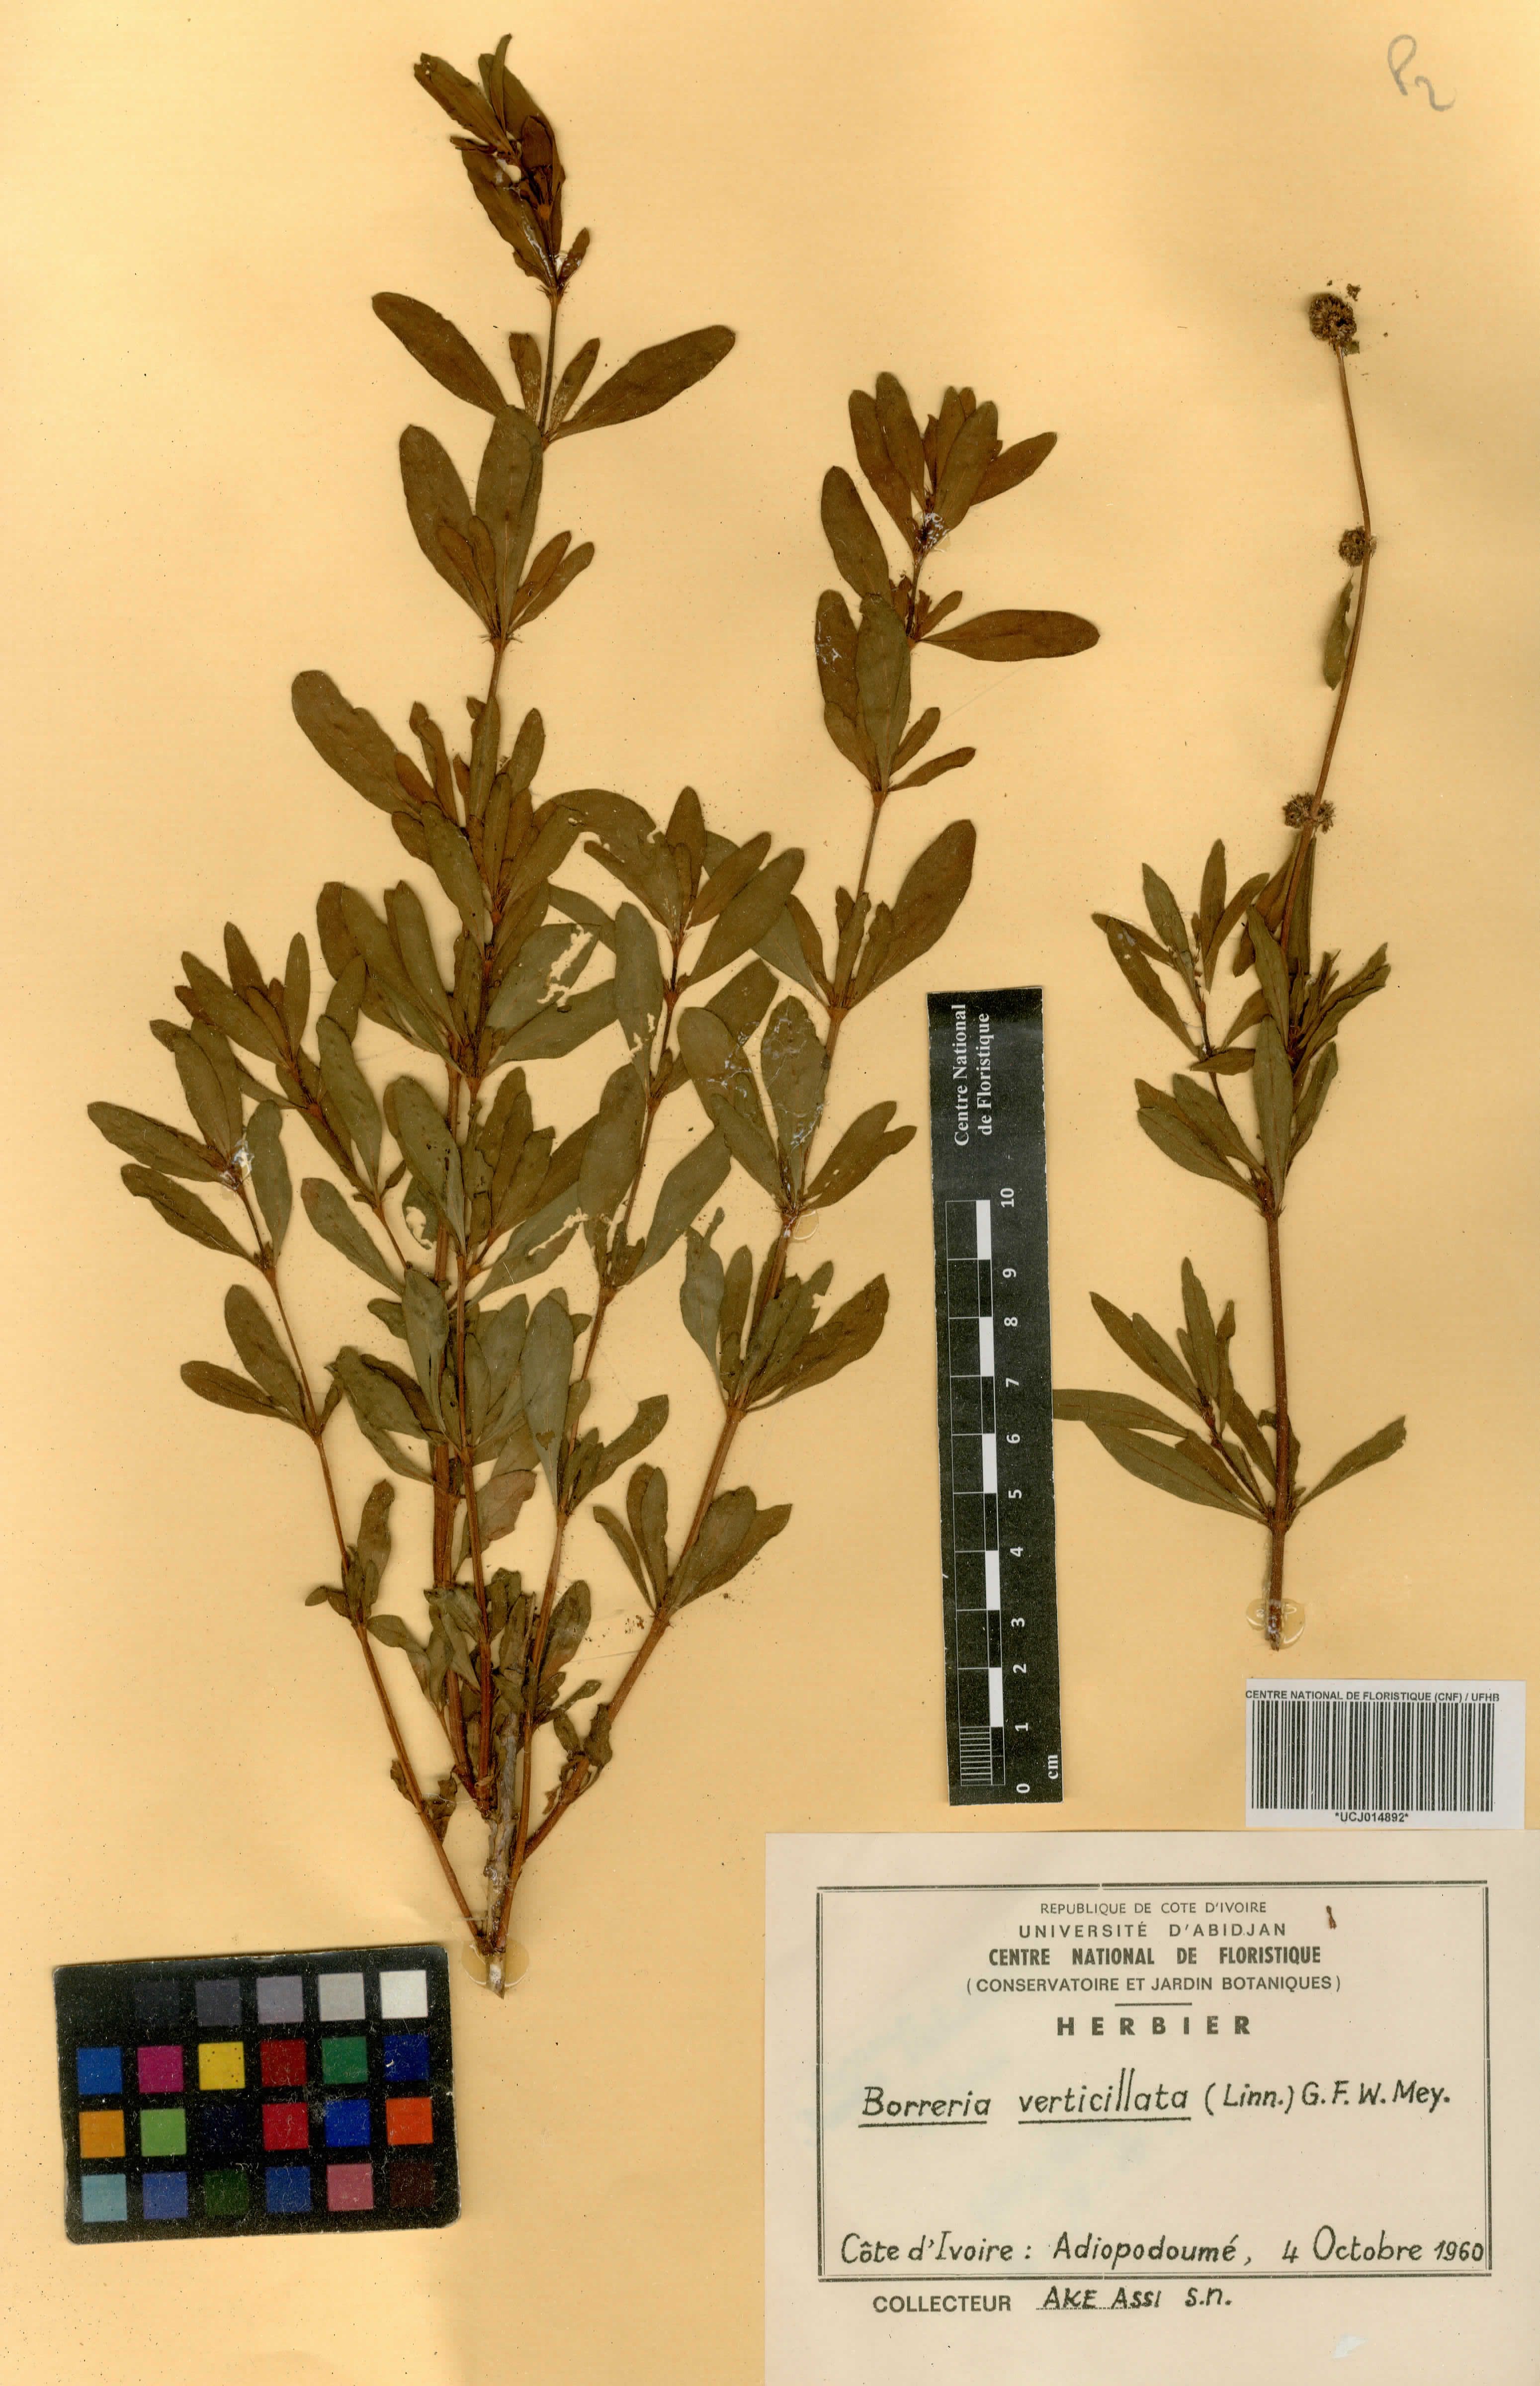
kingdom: Plantae
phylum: Tracheophyta
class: Magnoliopsida
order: Gentianales
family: Rubiaceae
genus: Spermacoce
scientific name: Spermacoce verticillata
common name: Shrubby false buttonweed
